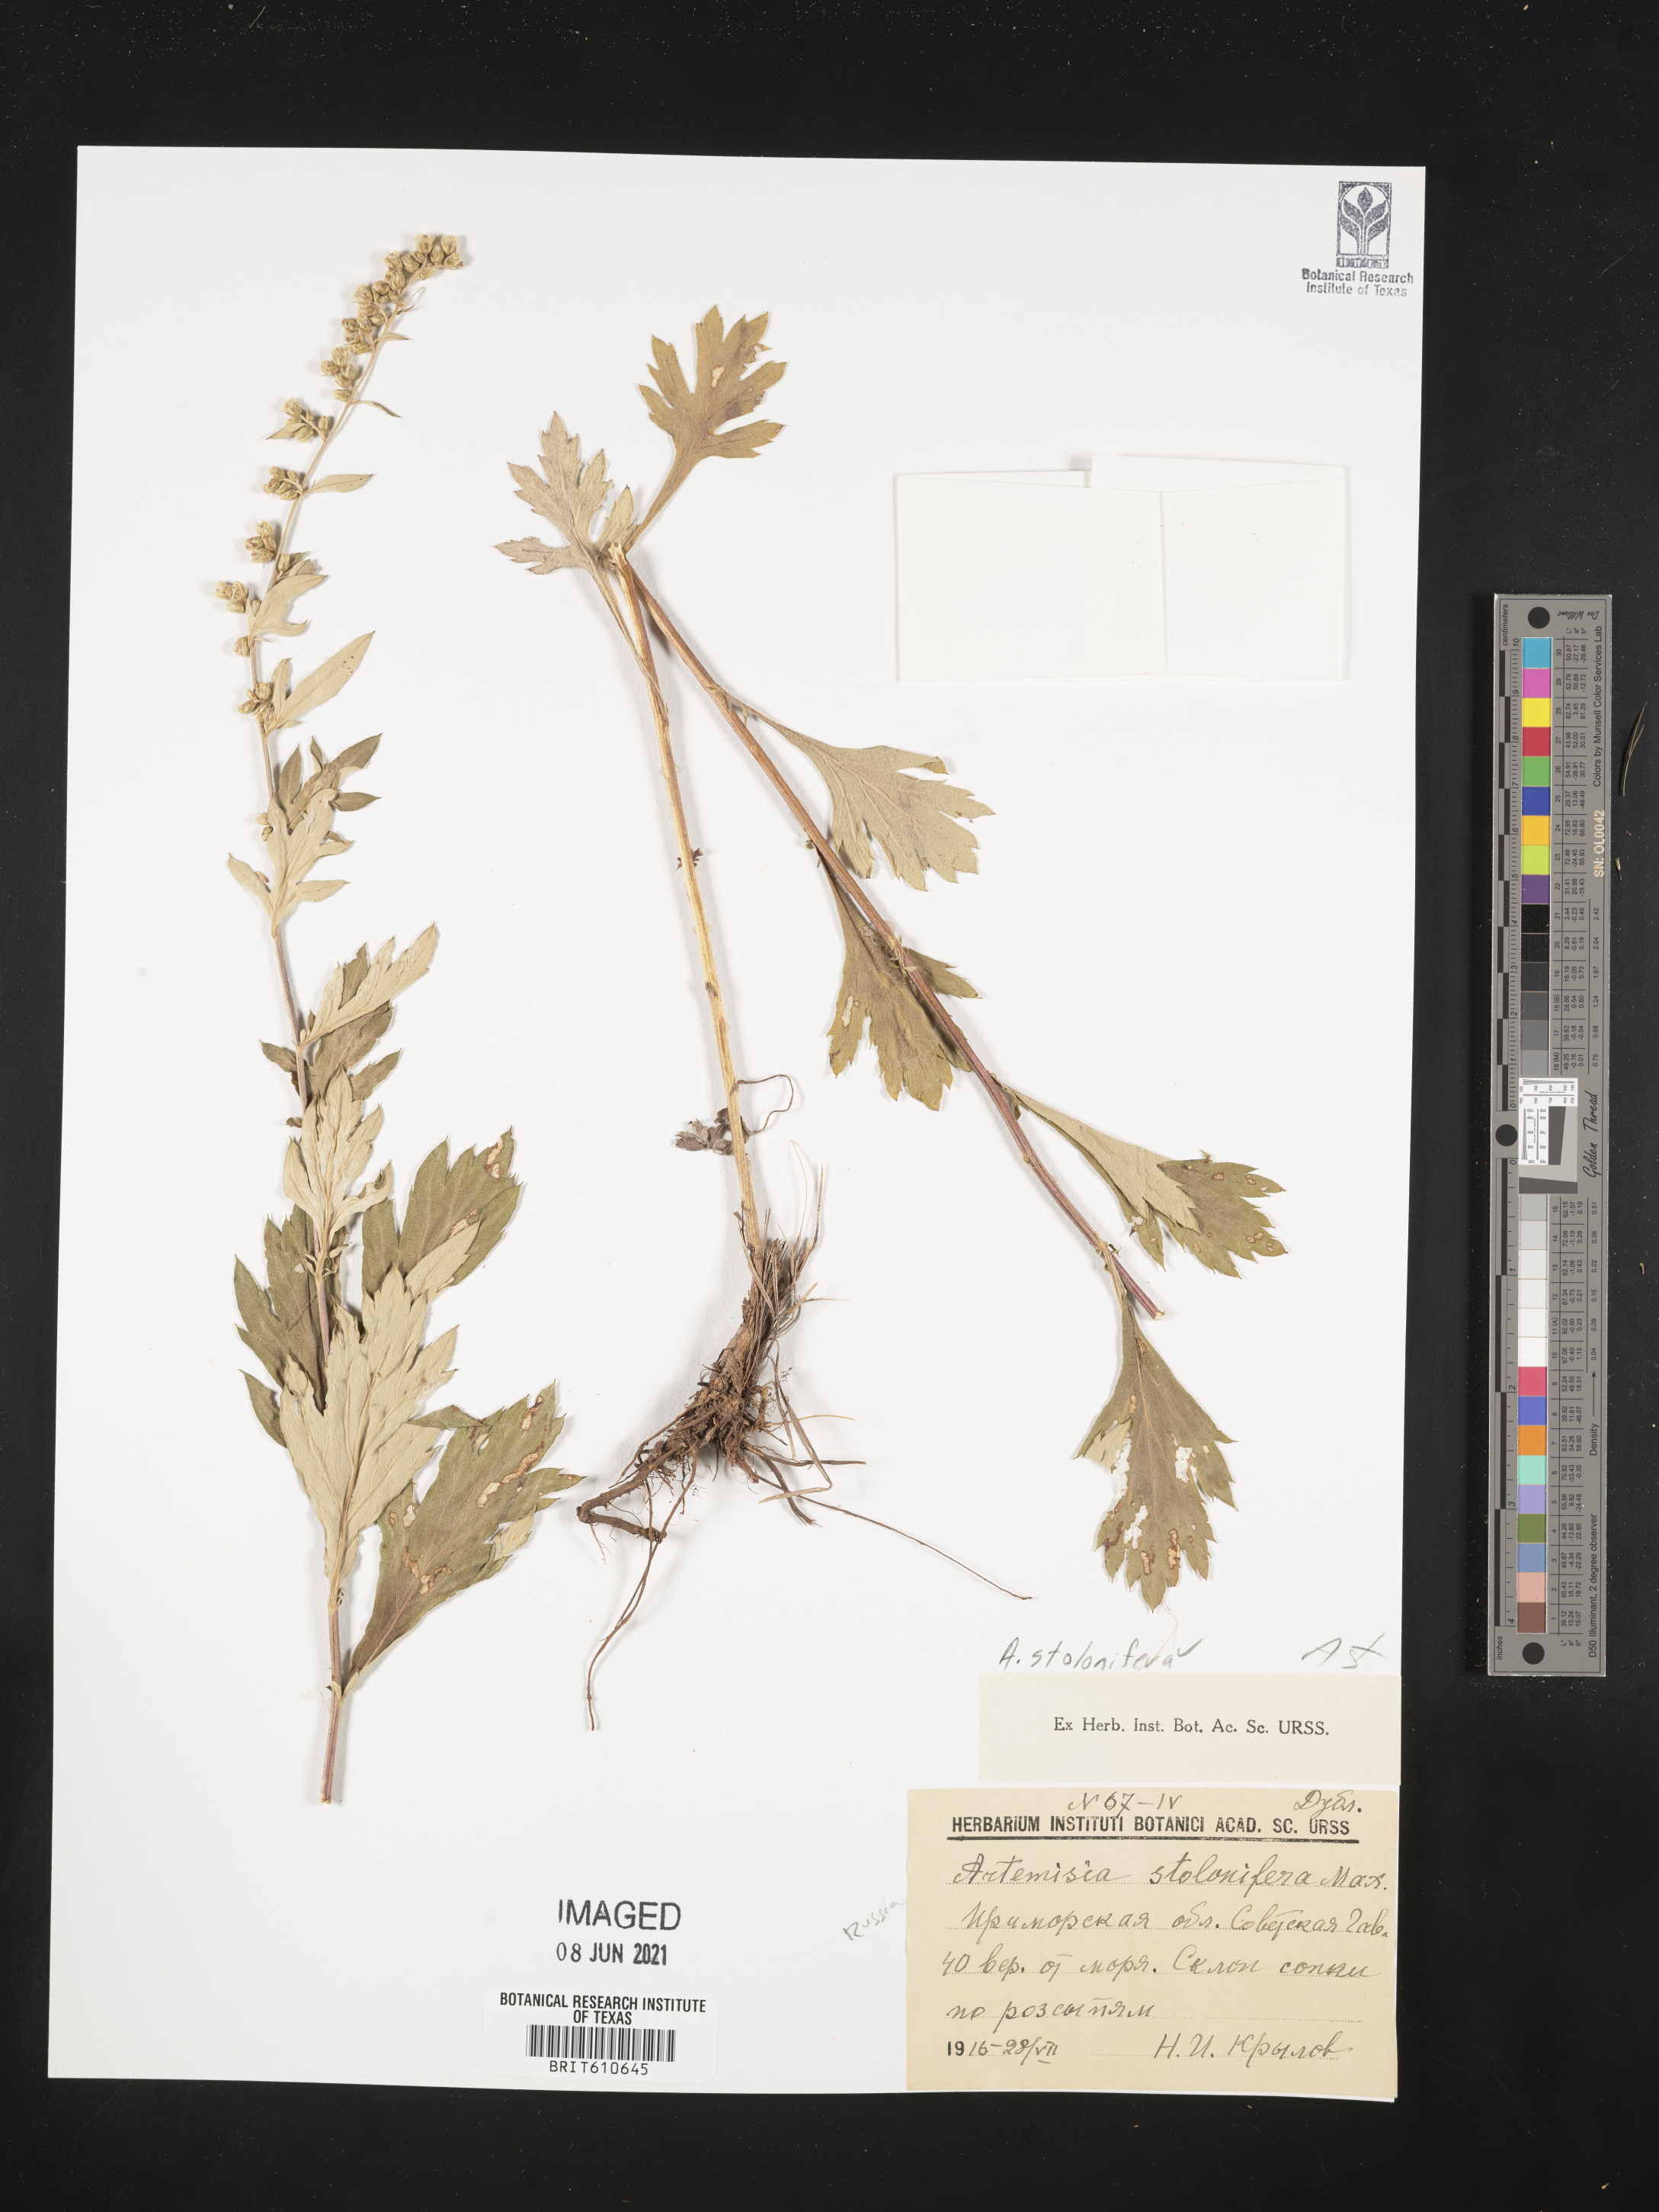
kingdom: Plantae
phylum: Tracheophyta
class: Magnoliopsida
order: Asterales
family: Asteraceae
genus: Artemisia
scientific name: Artemisia stolonifera
